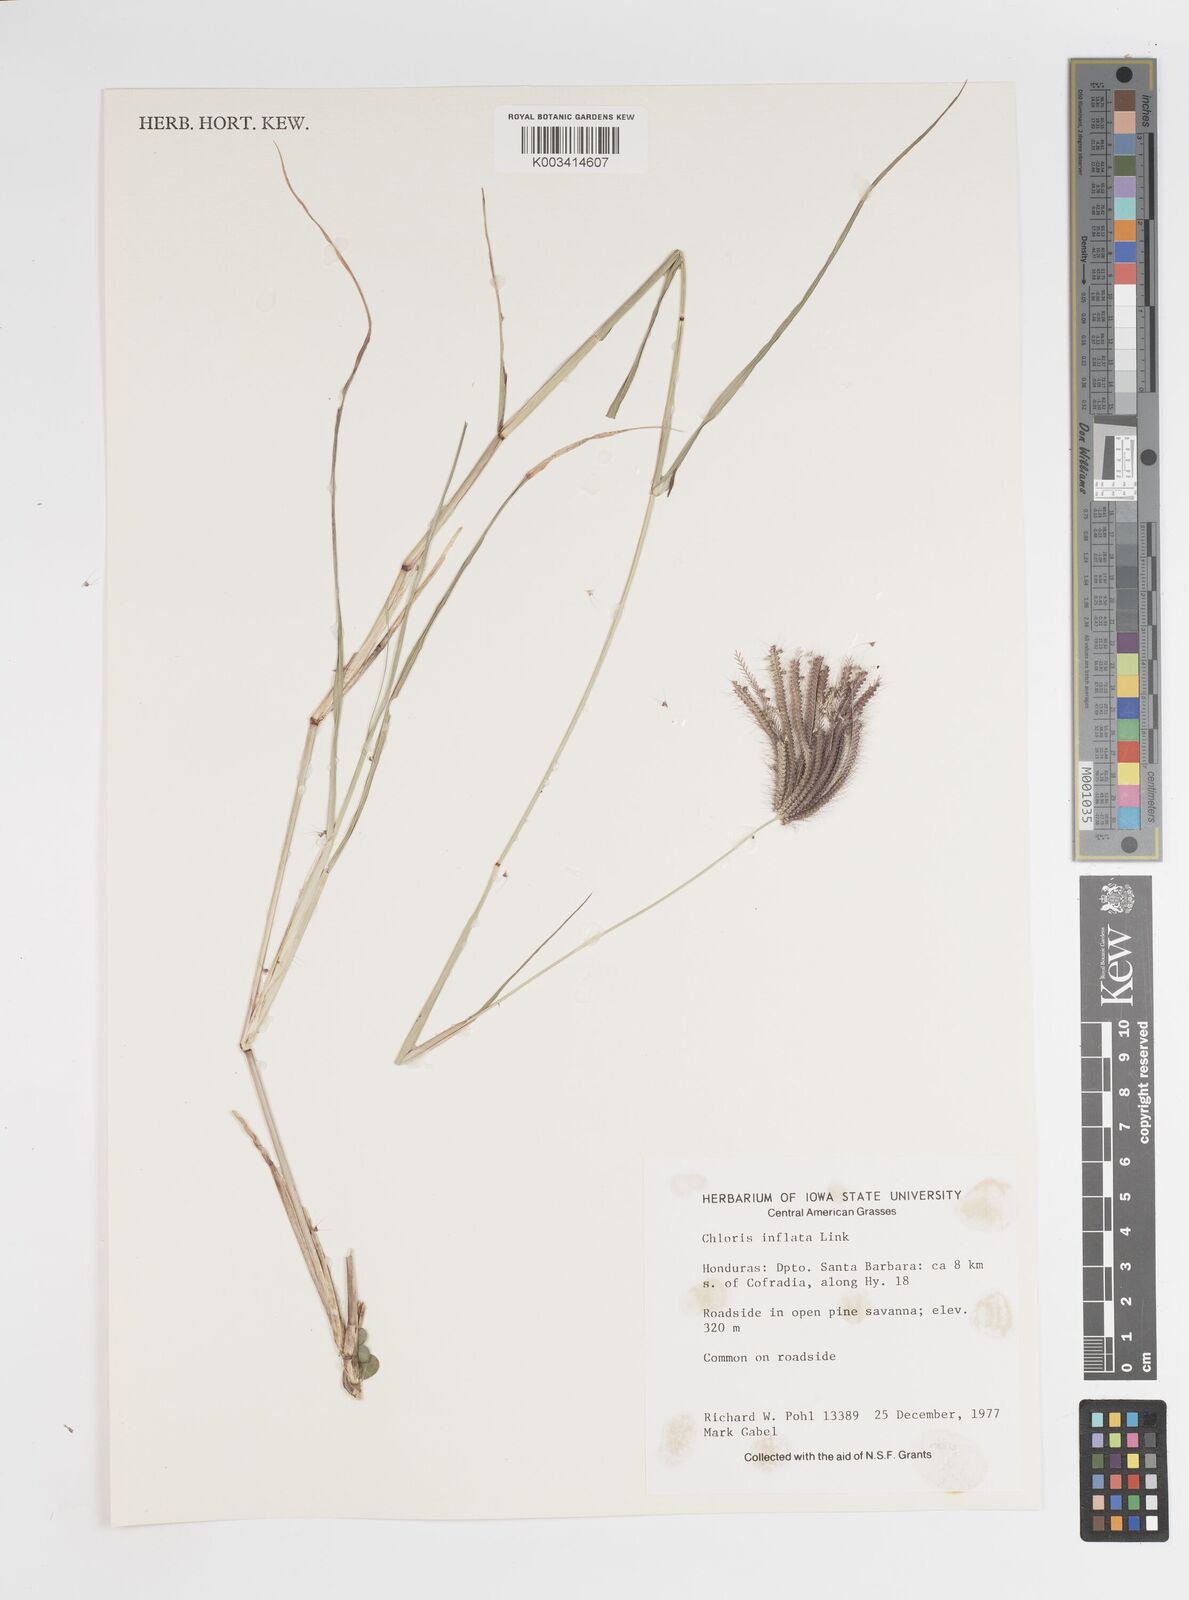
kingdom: Plantae
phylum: Tracheophyta
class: Liliopsida
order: Poales
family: Poaceae
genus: Stapfochloa
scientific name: Stapfochloa elata
